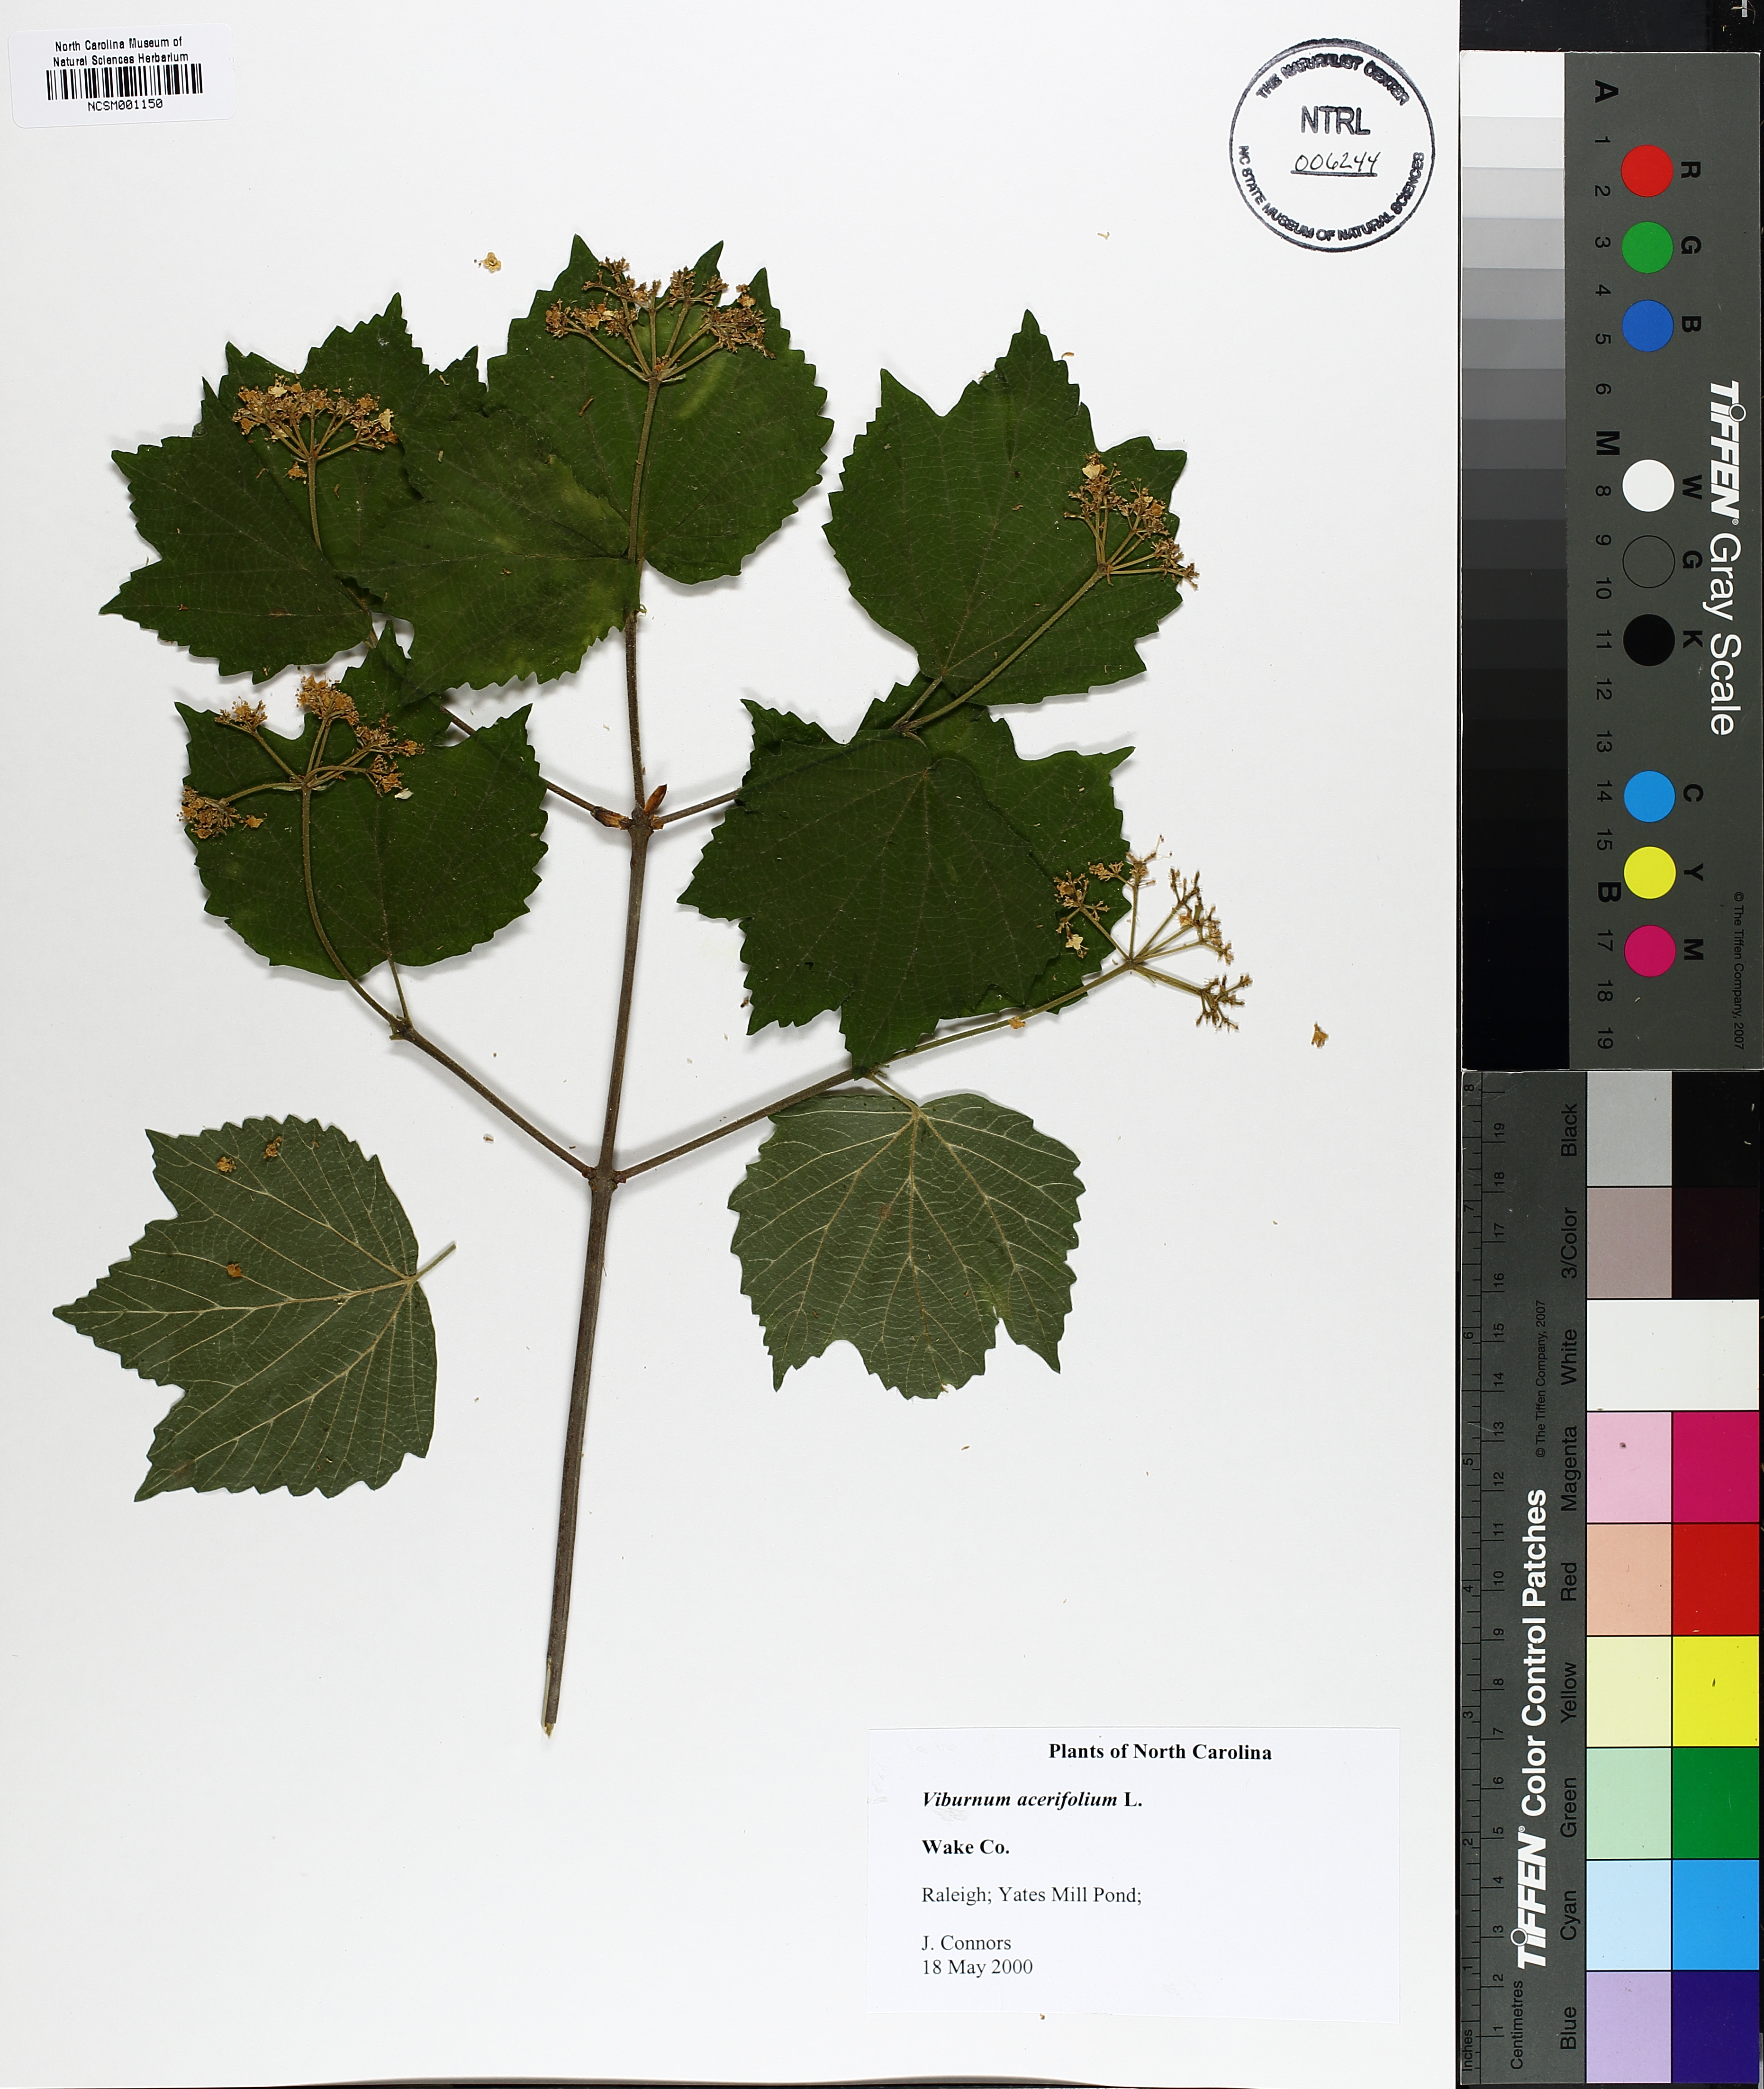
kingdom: Plantae
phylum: Tracheophyta
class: Magnoliopsida
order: Dipsacales
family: Viburnaceae
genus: Viburnum
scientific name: Viburnum acerifolium
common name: Dockmackie
